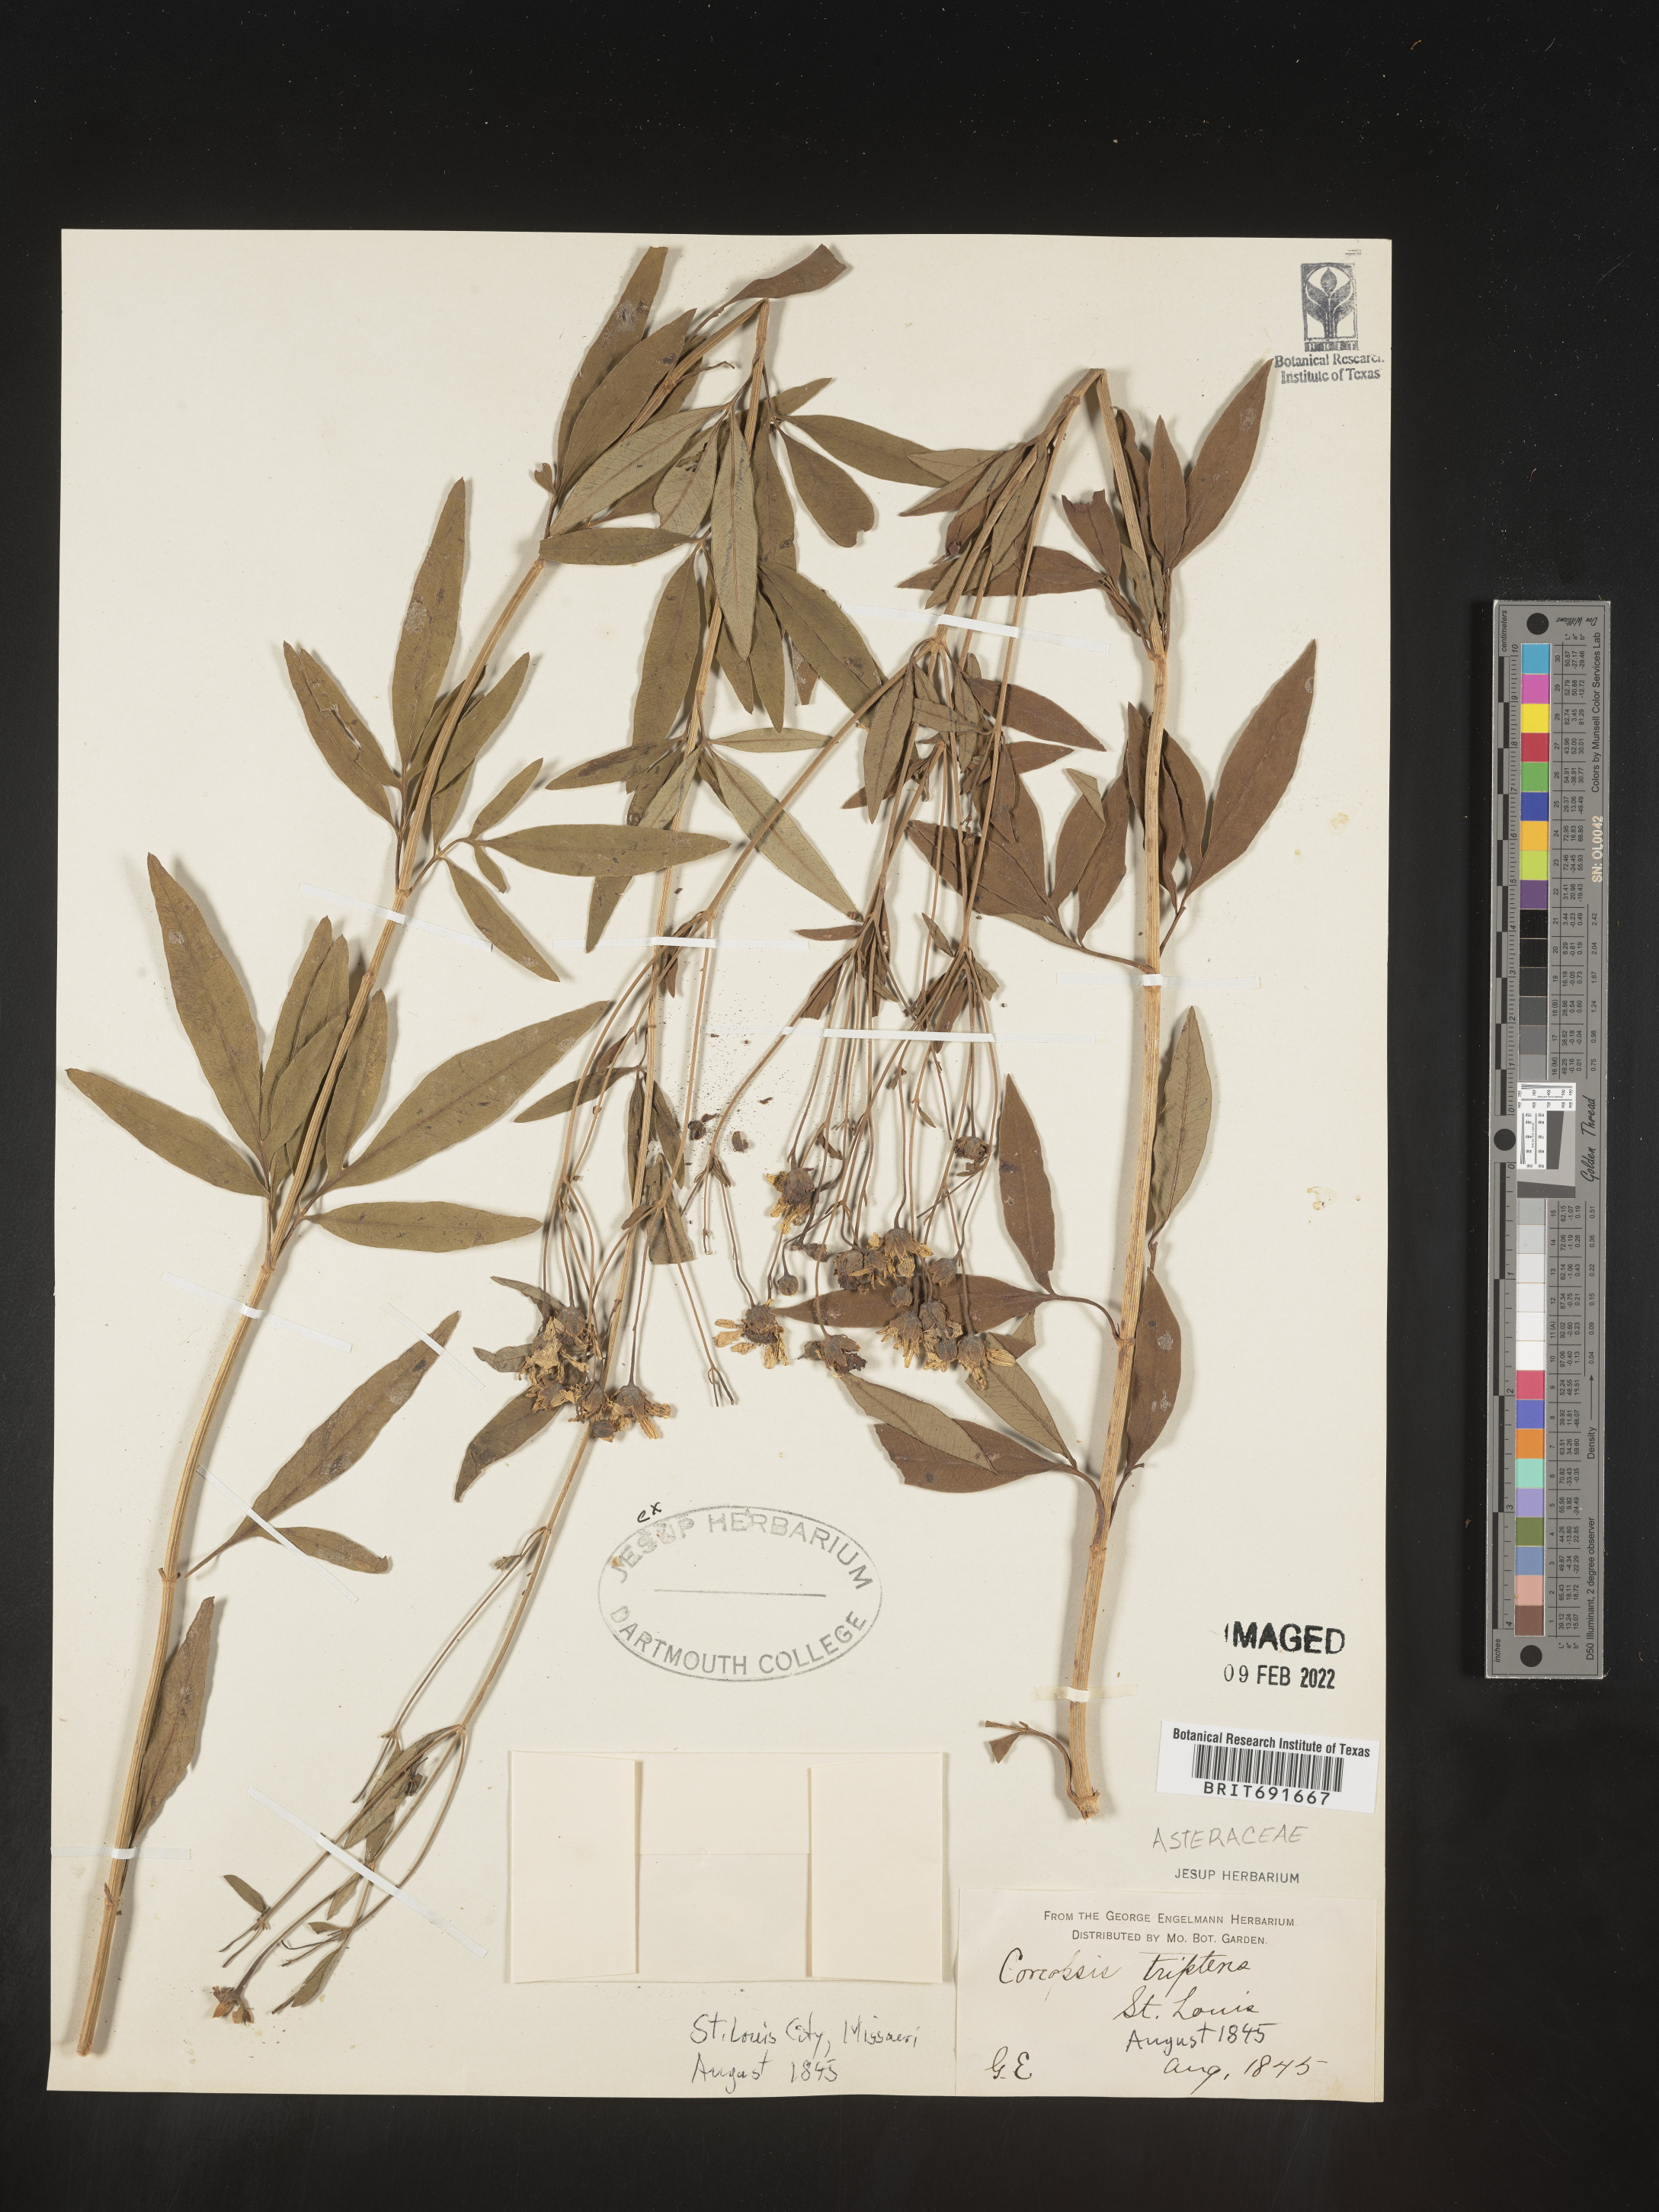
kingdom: Plantae
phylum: Tracheophyta
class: Magnoliopsida
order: Asterales
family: Asteraceae
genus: Coreopsis
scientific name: Coreopsis tripteris
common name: Tall coreopsis
